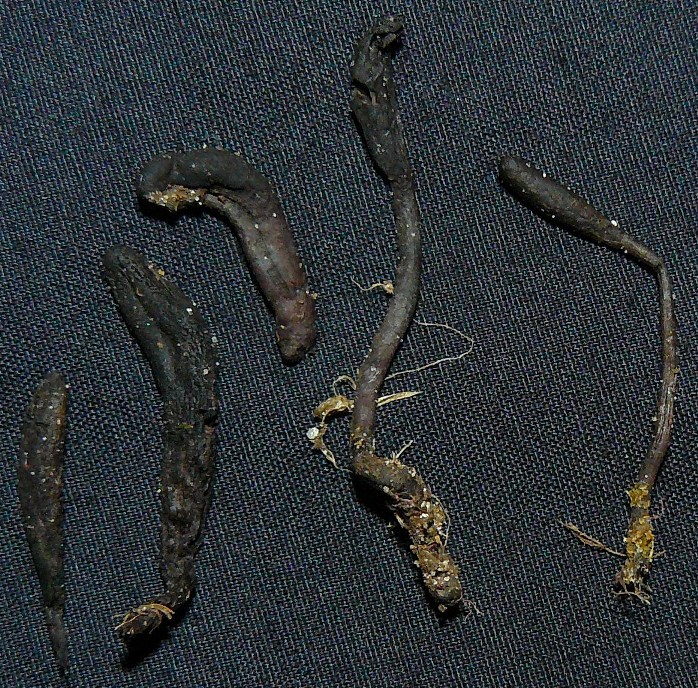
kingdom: Fungi
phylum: Ascomycota
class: Geoglossomycetes
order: Geoglossales
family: Geoglossaceae
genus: Geoglossum
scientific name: Geoglossum umbratile
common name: slank jordtunge
